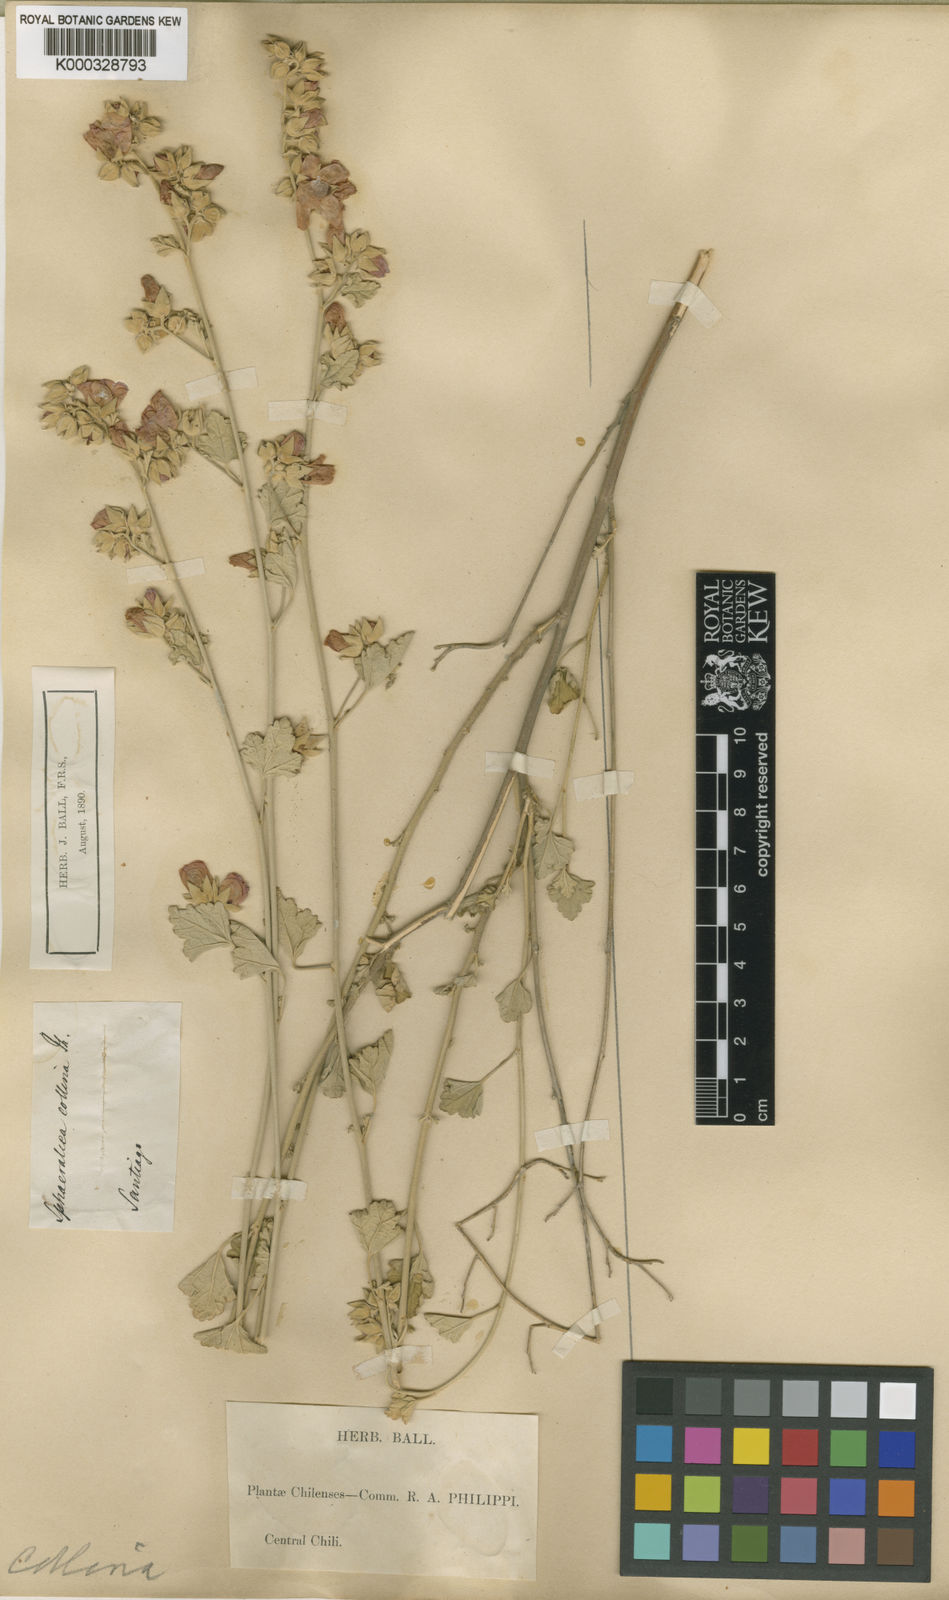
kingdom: Plantae
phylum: Tracheophyta
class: Magnoliopsida
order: Malvales
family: Malvaceae
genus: Sphaeralcea
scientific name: Sphaeralcea obtusiloba
